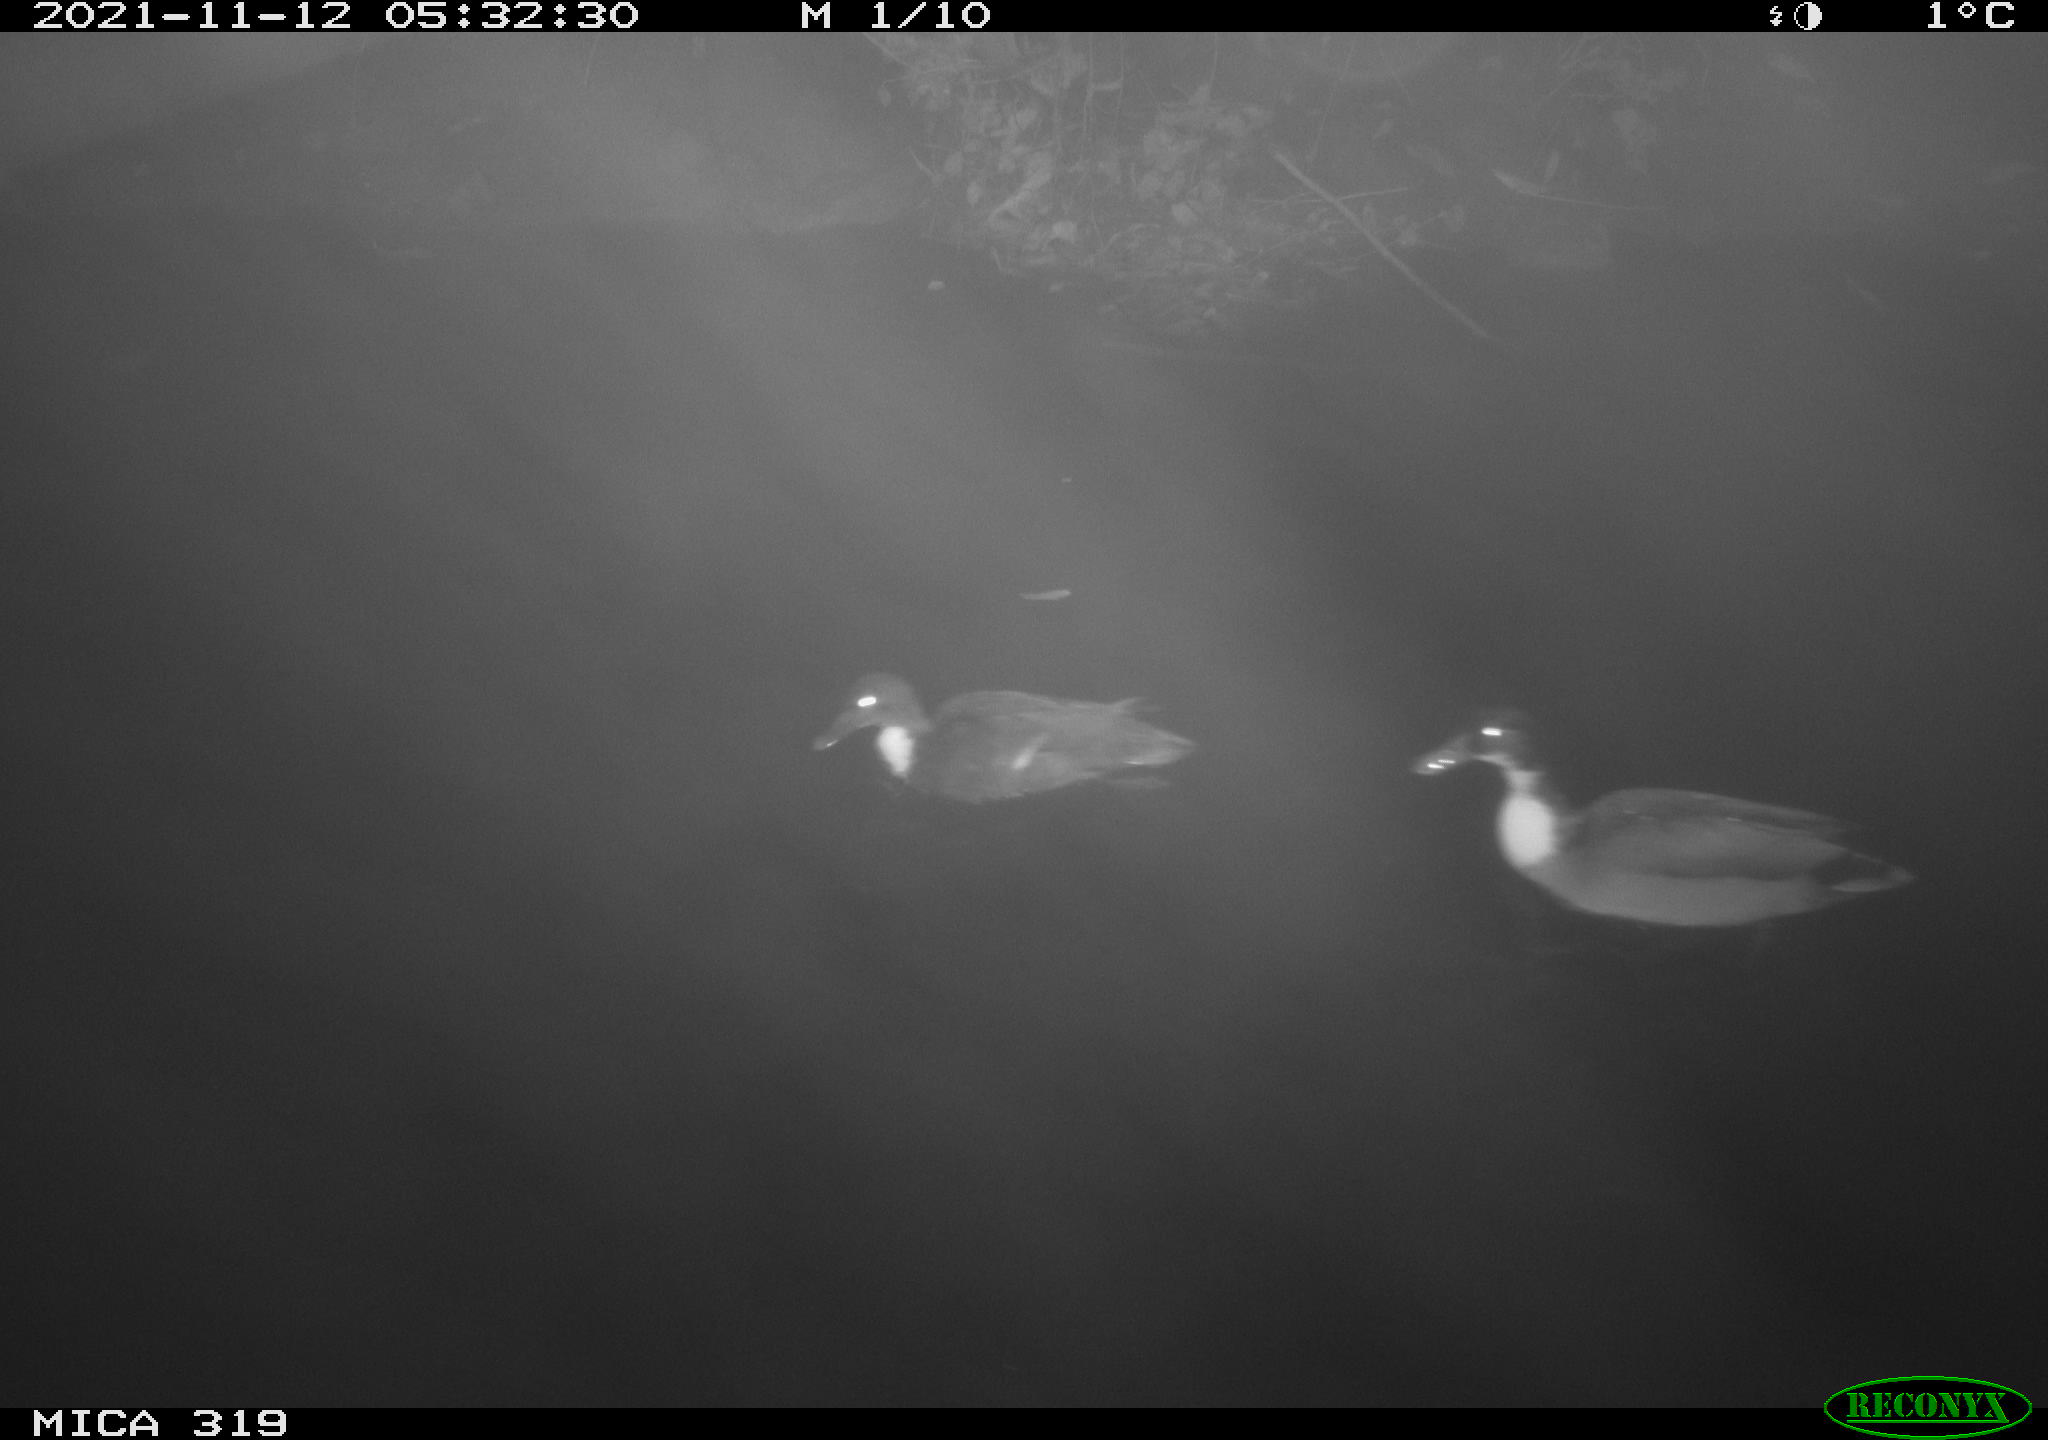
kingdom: Animalia
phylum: Chordata
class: Aves
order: Anseriformes
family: Anatidae
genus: Anas
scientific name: Anas platyrhynchos
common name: Mallard
